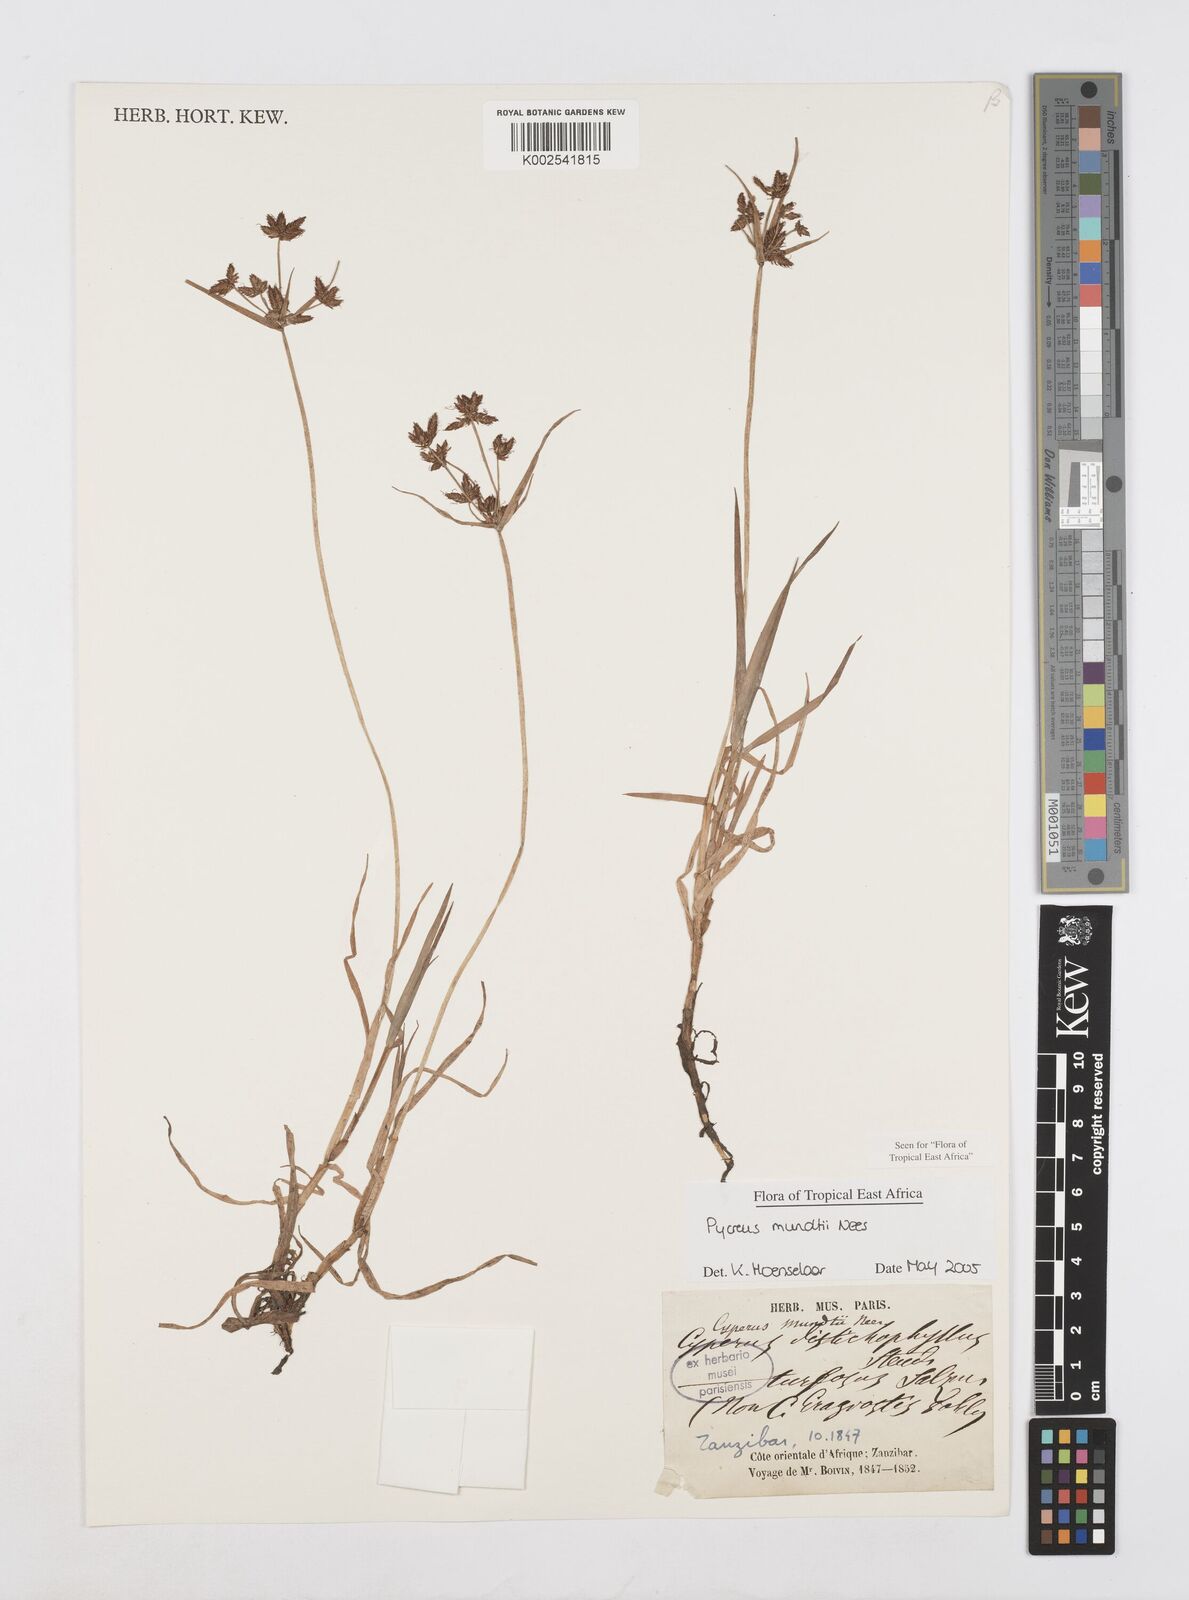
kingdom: Plantae
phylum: Tracheophyta
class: Liliopsida
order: Poales
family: Cyperaceae
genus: Cyperus
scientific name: Cyperus mundii
